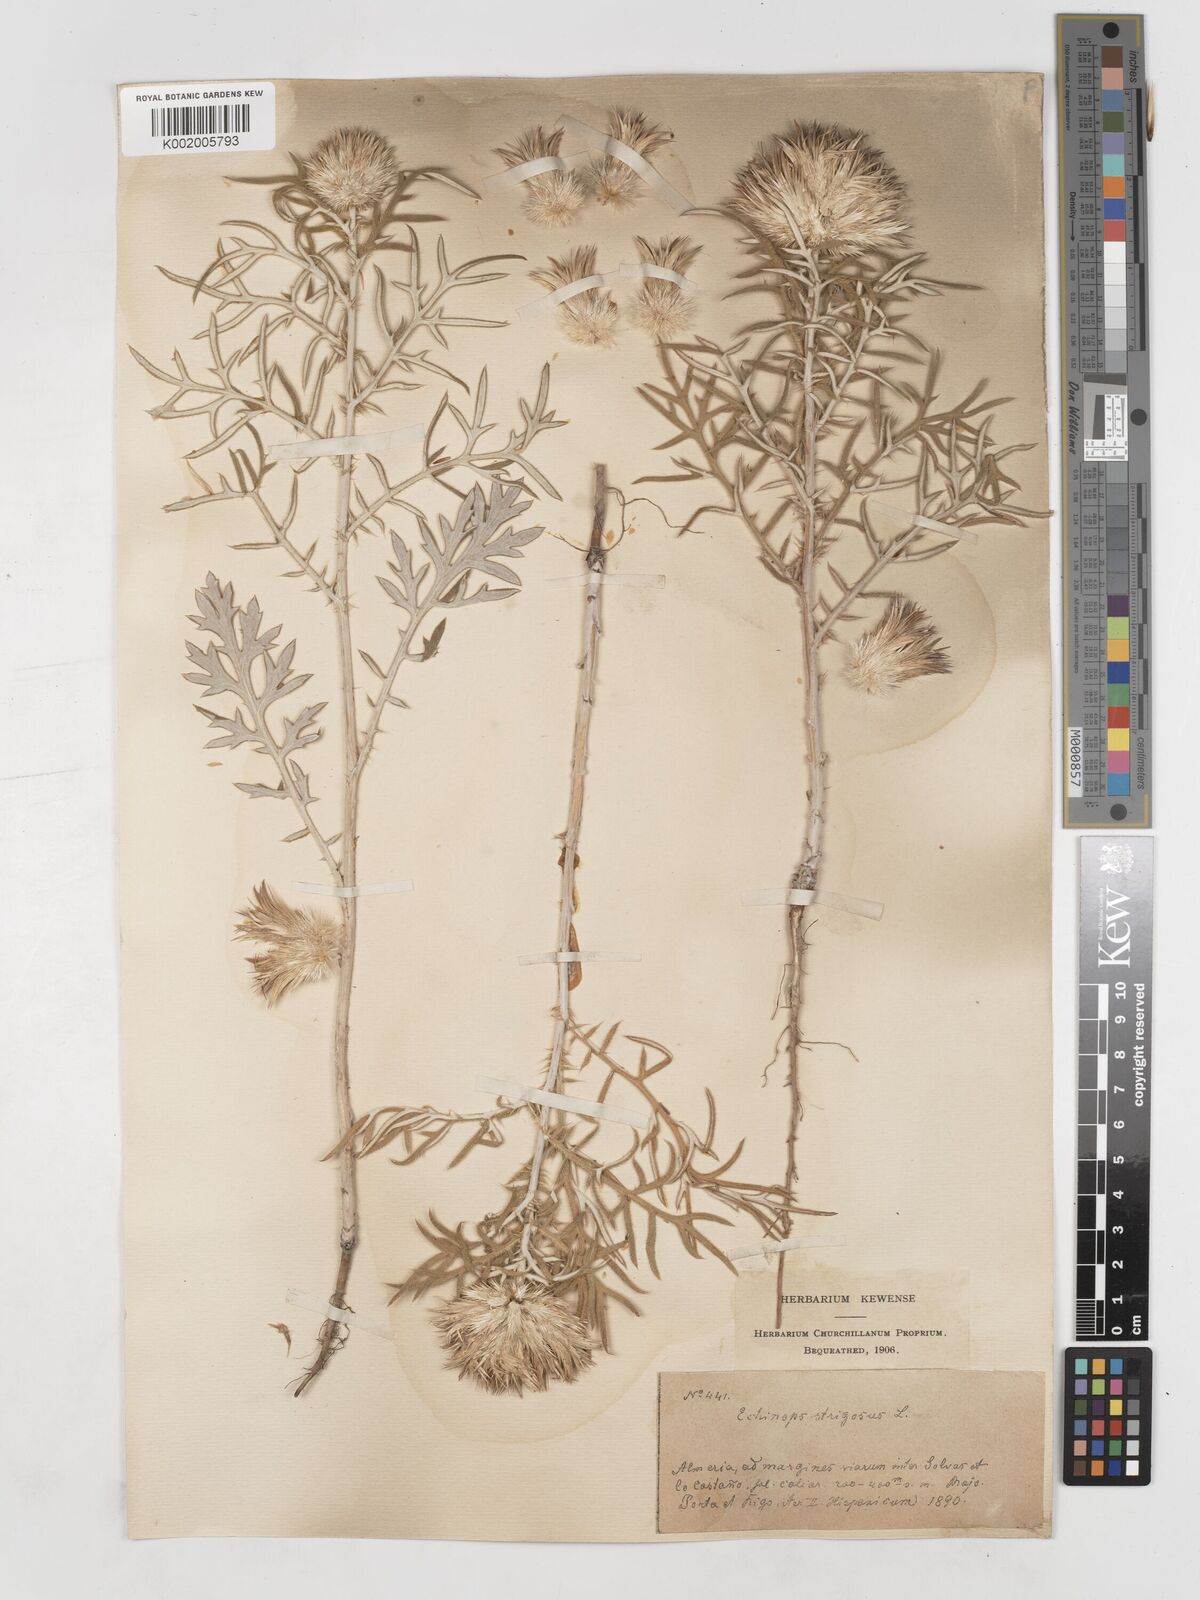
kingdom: Plantae
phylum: Tracheophyta
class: Magnoliopsida
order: Asterales
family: Asteraceae
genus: Echinops
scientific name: Echinops strigosus
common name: Rough-leaf globe thistle
